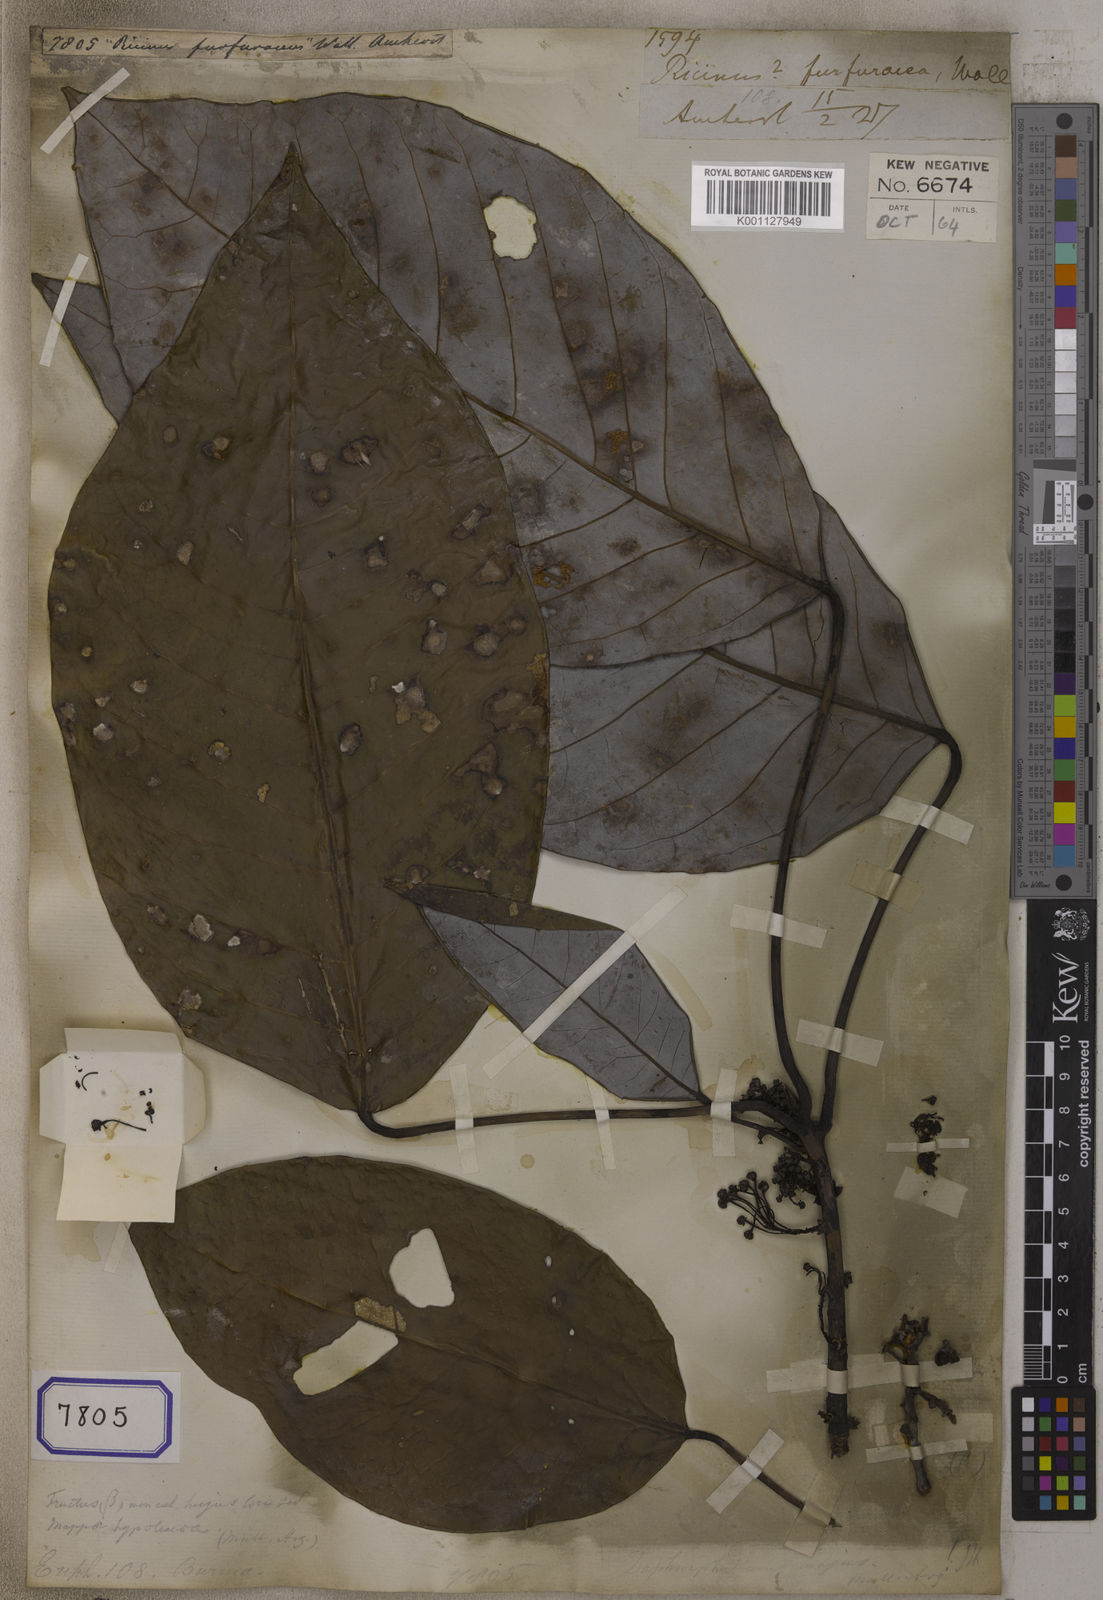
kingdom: Plantae
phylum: Tracheophyta
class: Magnoliopsida
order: Malpighiales
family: Euphorbiaceae
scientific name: Euphorbiaceae
